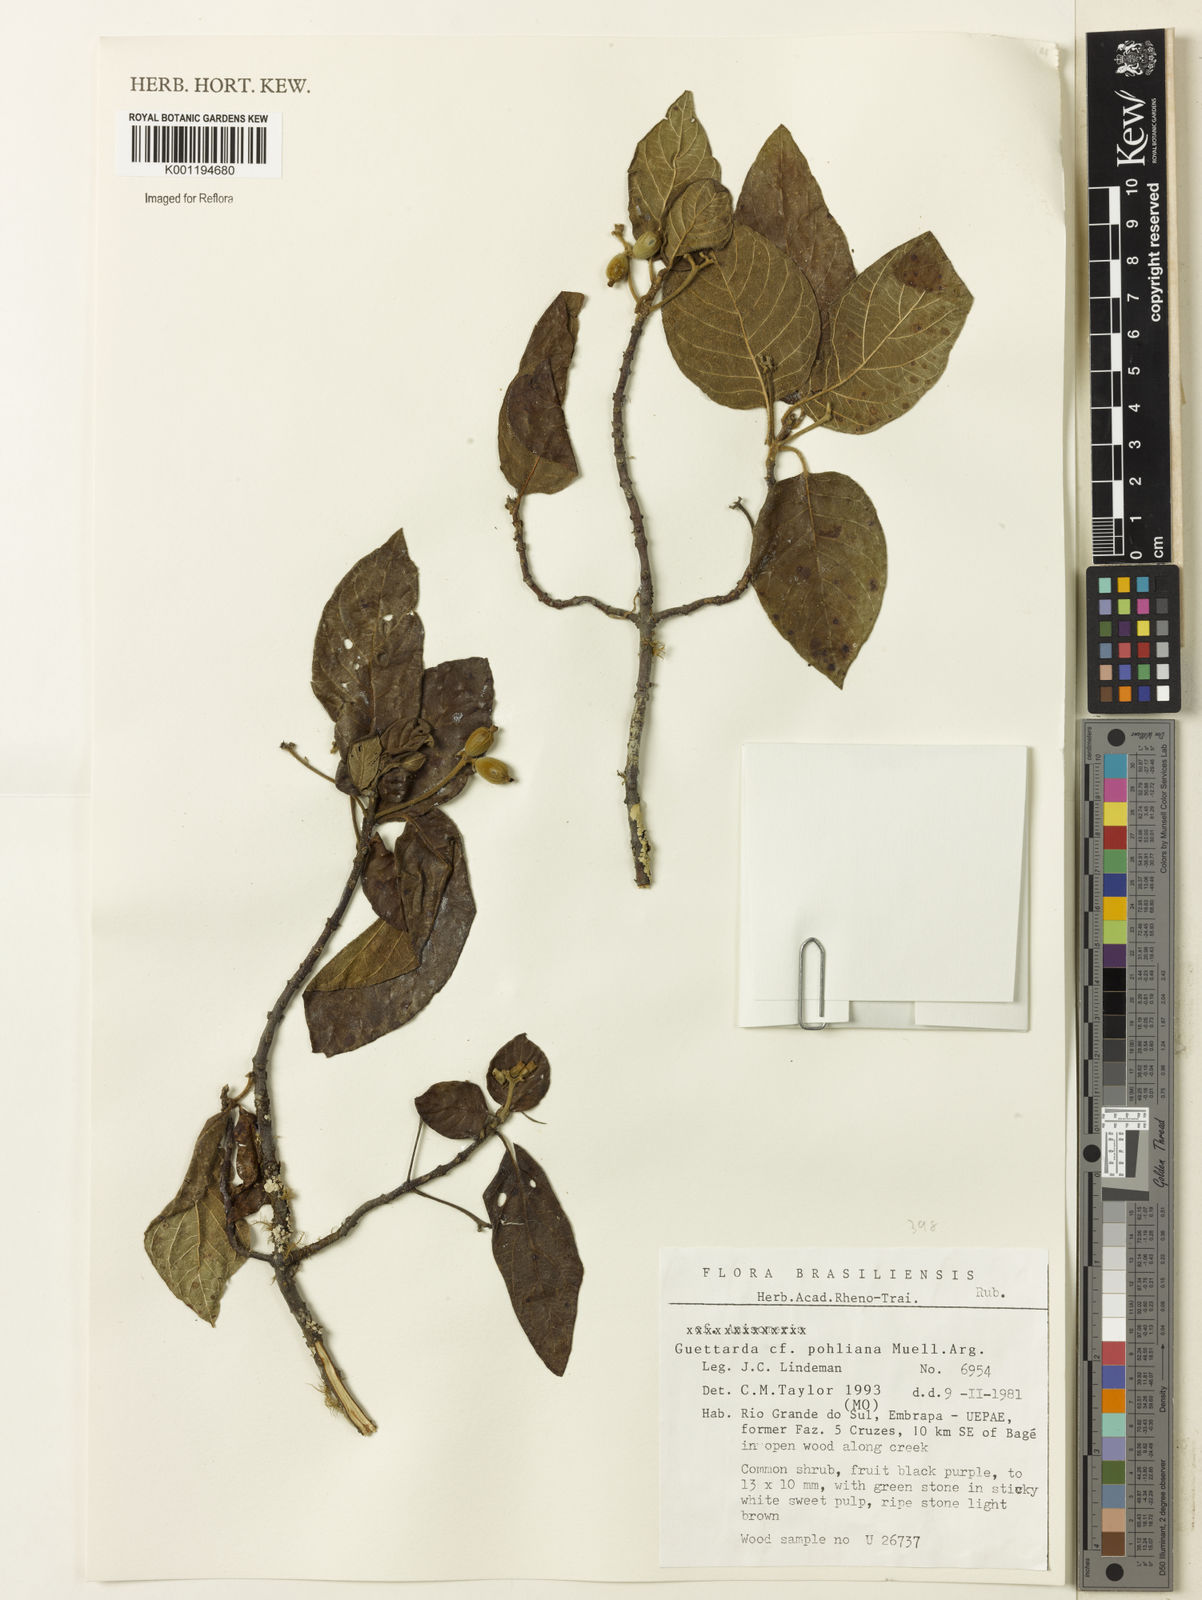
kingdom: Plantae
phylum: Tracheophyta
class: Magnoliopsida
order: Gentianales
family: Rubiaceae
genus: Guettarda
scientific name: Guettarda
